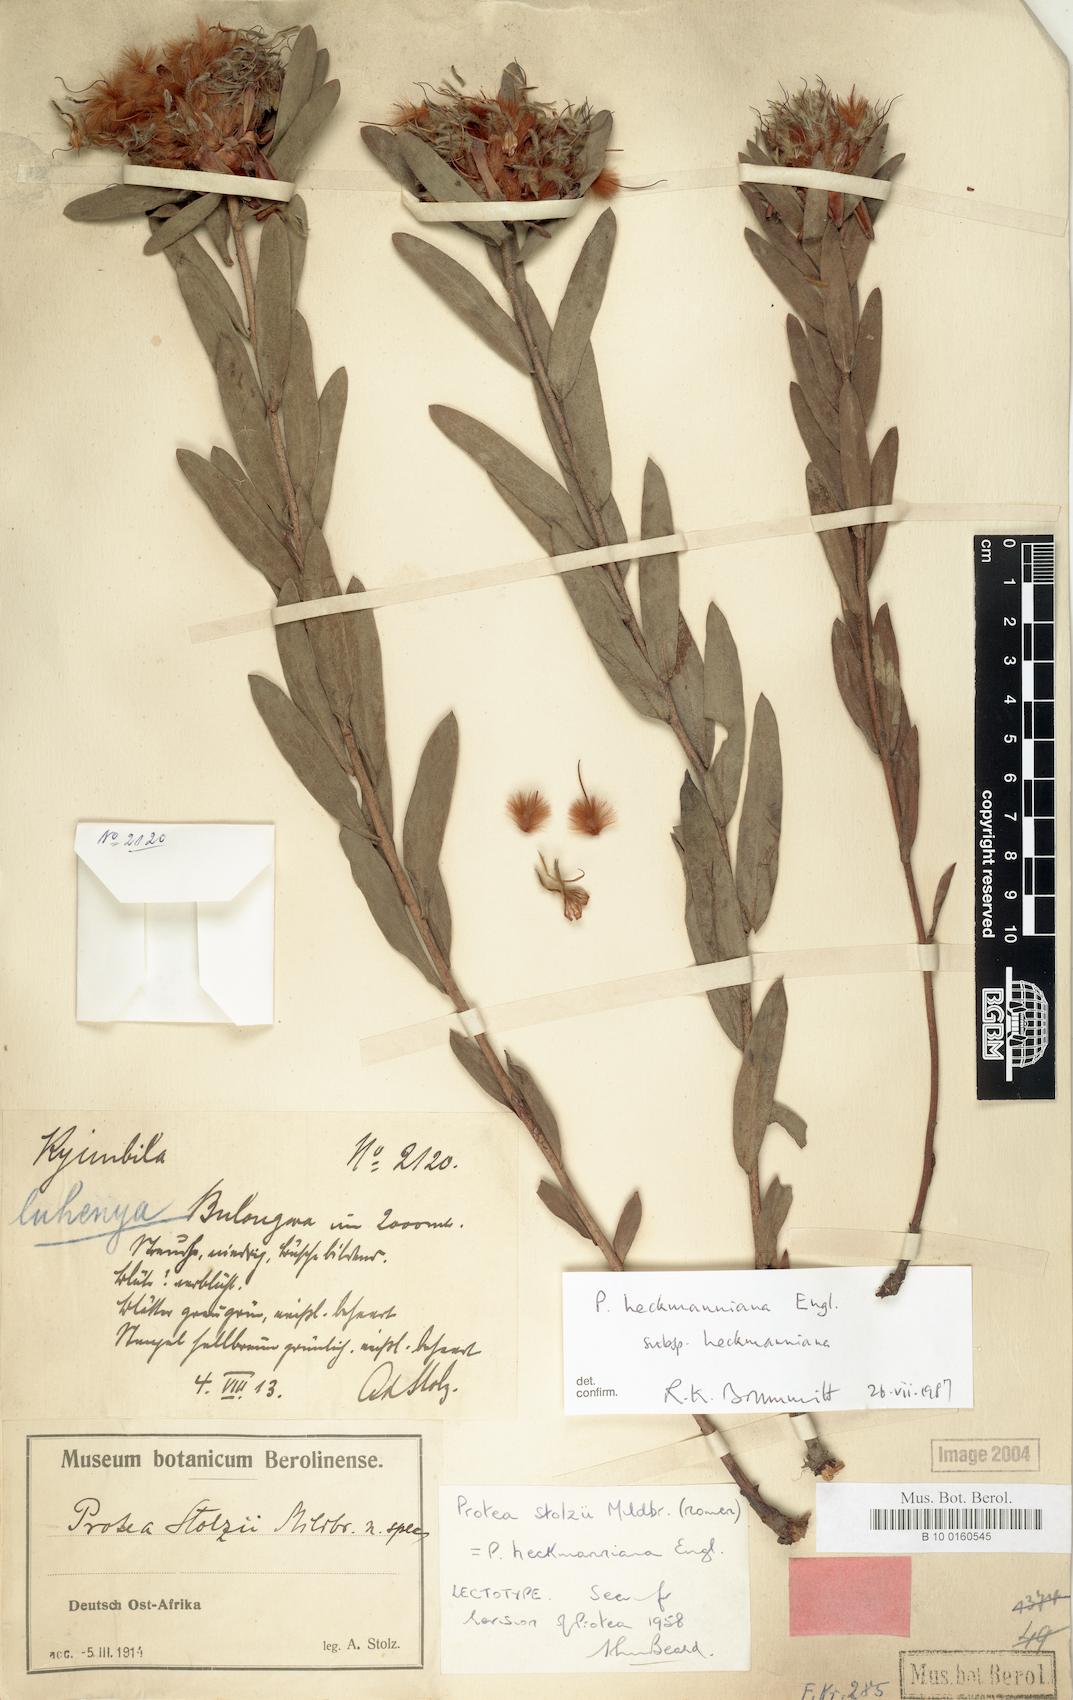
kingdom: Plantae
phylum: Tracheophyta
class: Magnoliopsida
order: Proteales
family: Proteaceae
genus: Protea
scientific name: Protea heckmanniana
